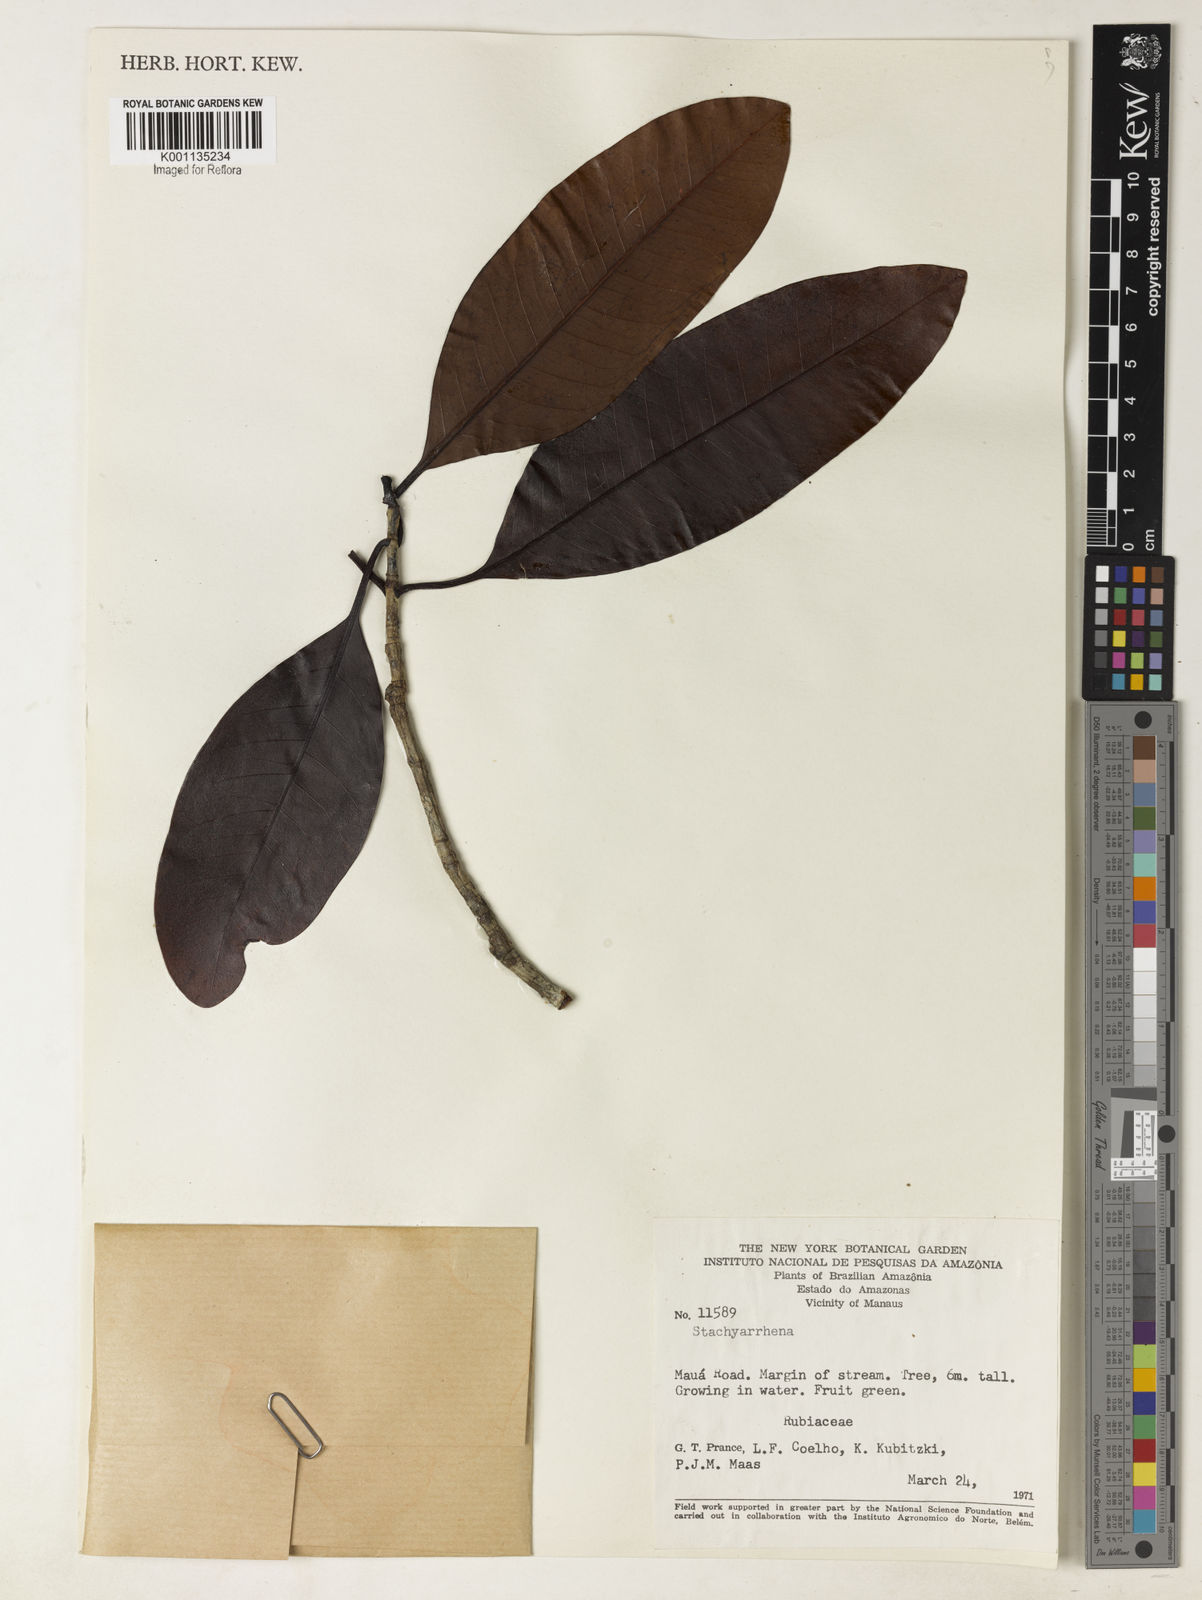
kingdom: Plantae
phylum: Tracheophyta
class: Magnoliopsida
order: Gentianales
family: Rubiaceae
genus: Stachyarrhena
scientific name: Stachyarrhena
